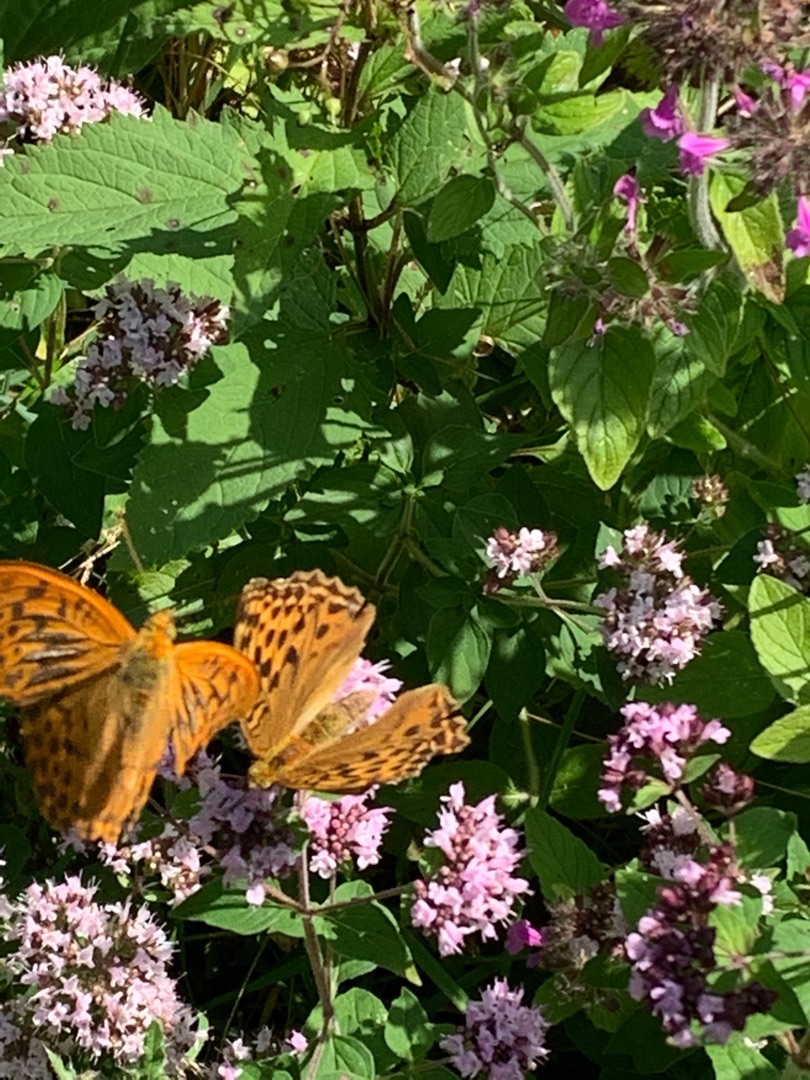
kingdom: Animalia
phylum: Arthropoda
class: Insecta
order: Lepidoptera
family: Nymphalidae
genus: Argynnis
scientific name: Argynnis paphia
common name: Kejserkåbe
